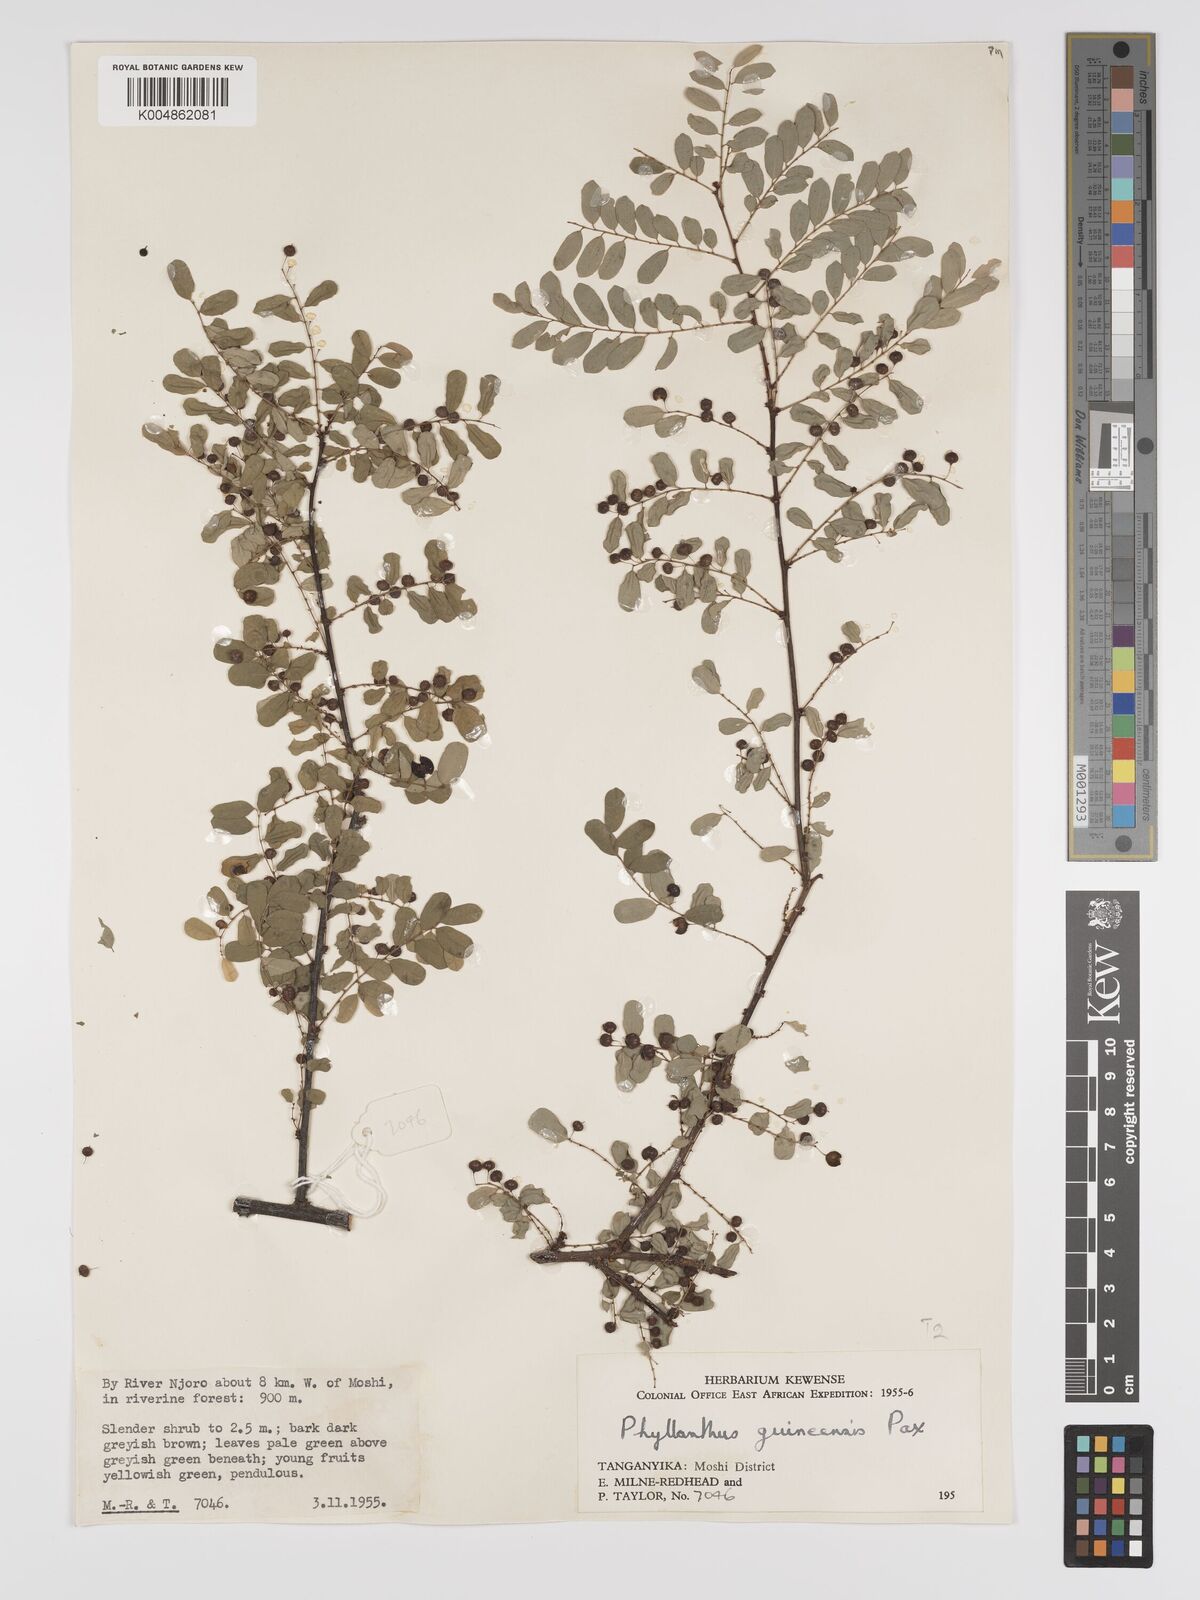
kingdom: Plantae
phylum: Tracheophyta
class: Magnoliopsida
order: Malpighiales
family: Phyllanthaceae
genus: Phyllanthus
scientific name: Phyllanthus ovalifolius
